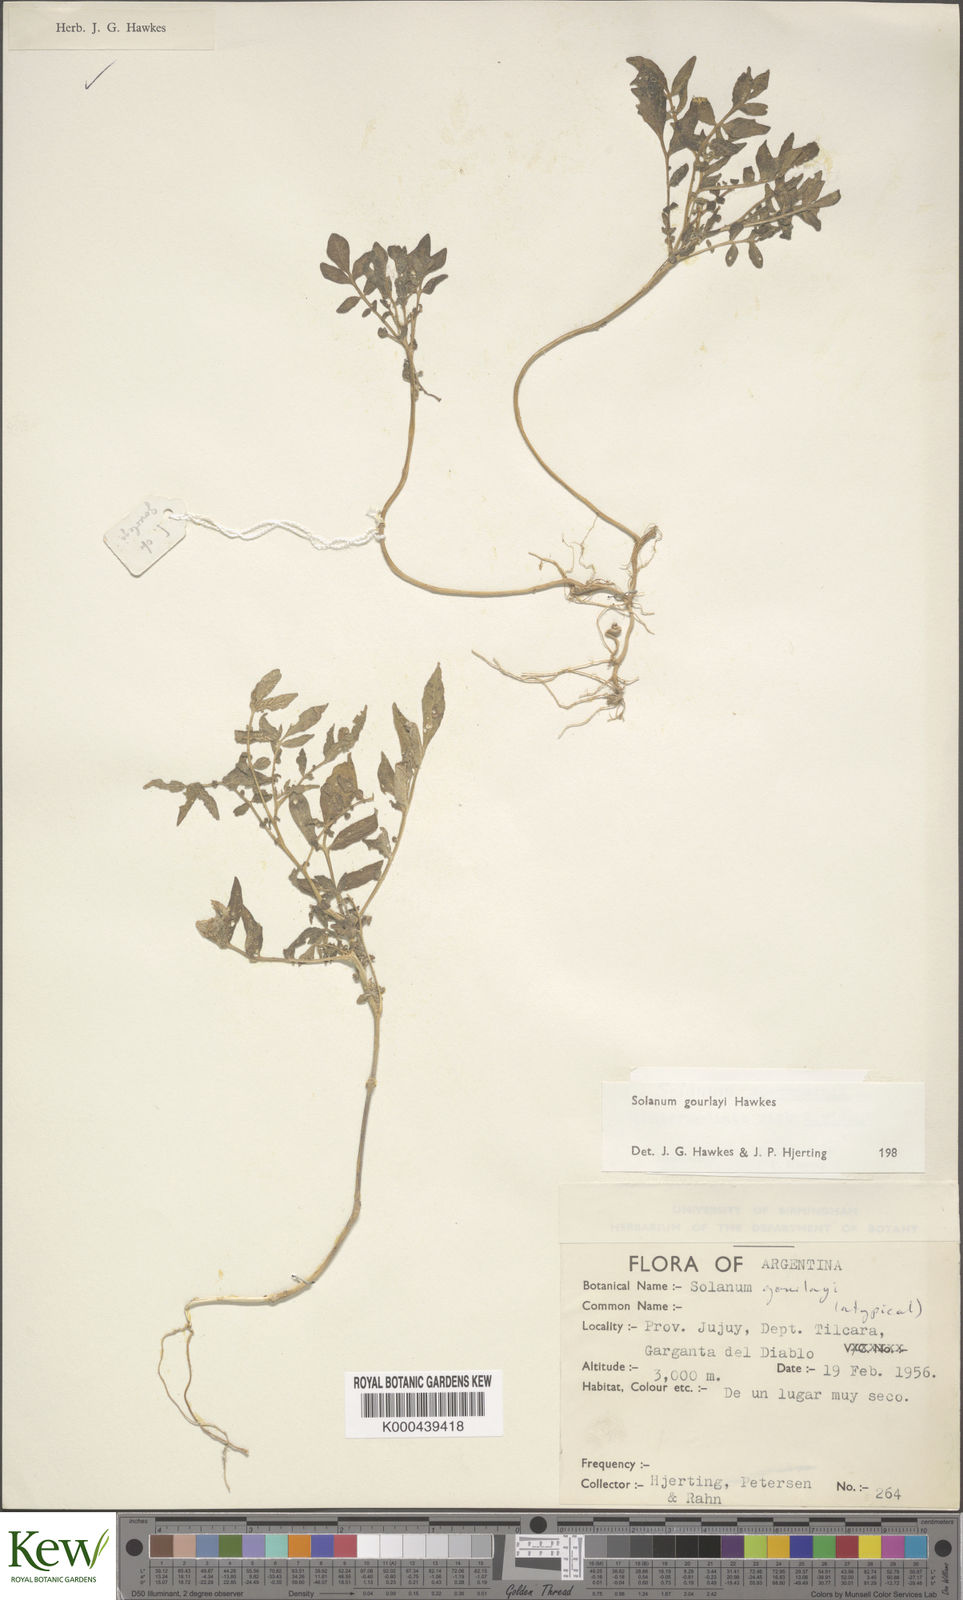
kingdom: Plantae
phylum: Tracheophyta
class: Magnoliopsida
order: Solanales
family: Solanaceae
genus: Solanum
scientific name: Solanum brevicaule
